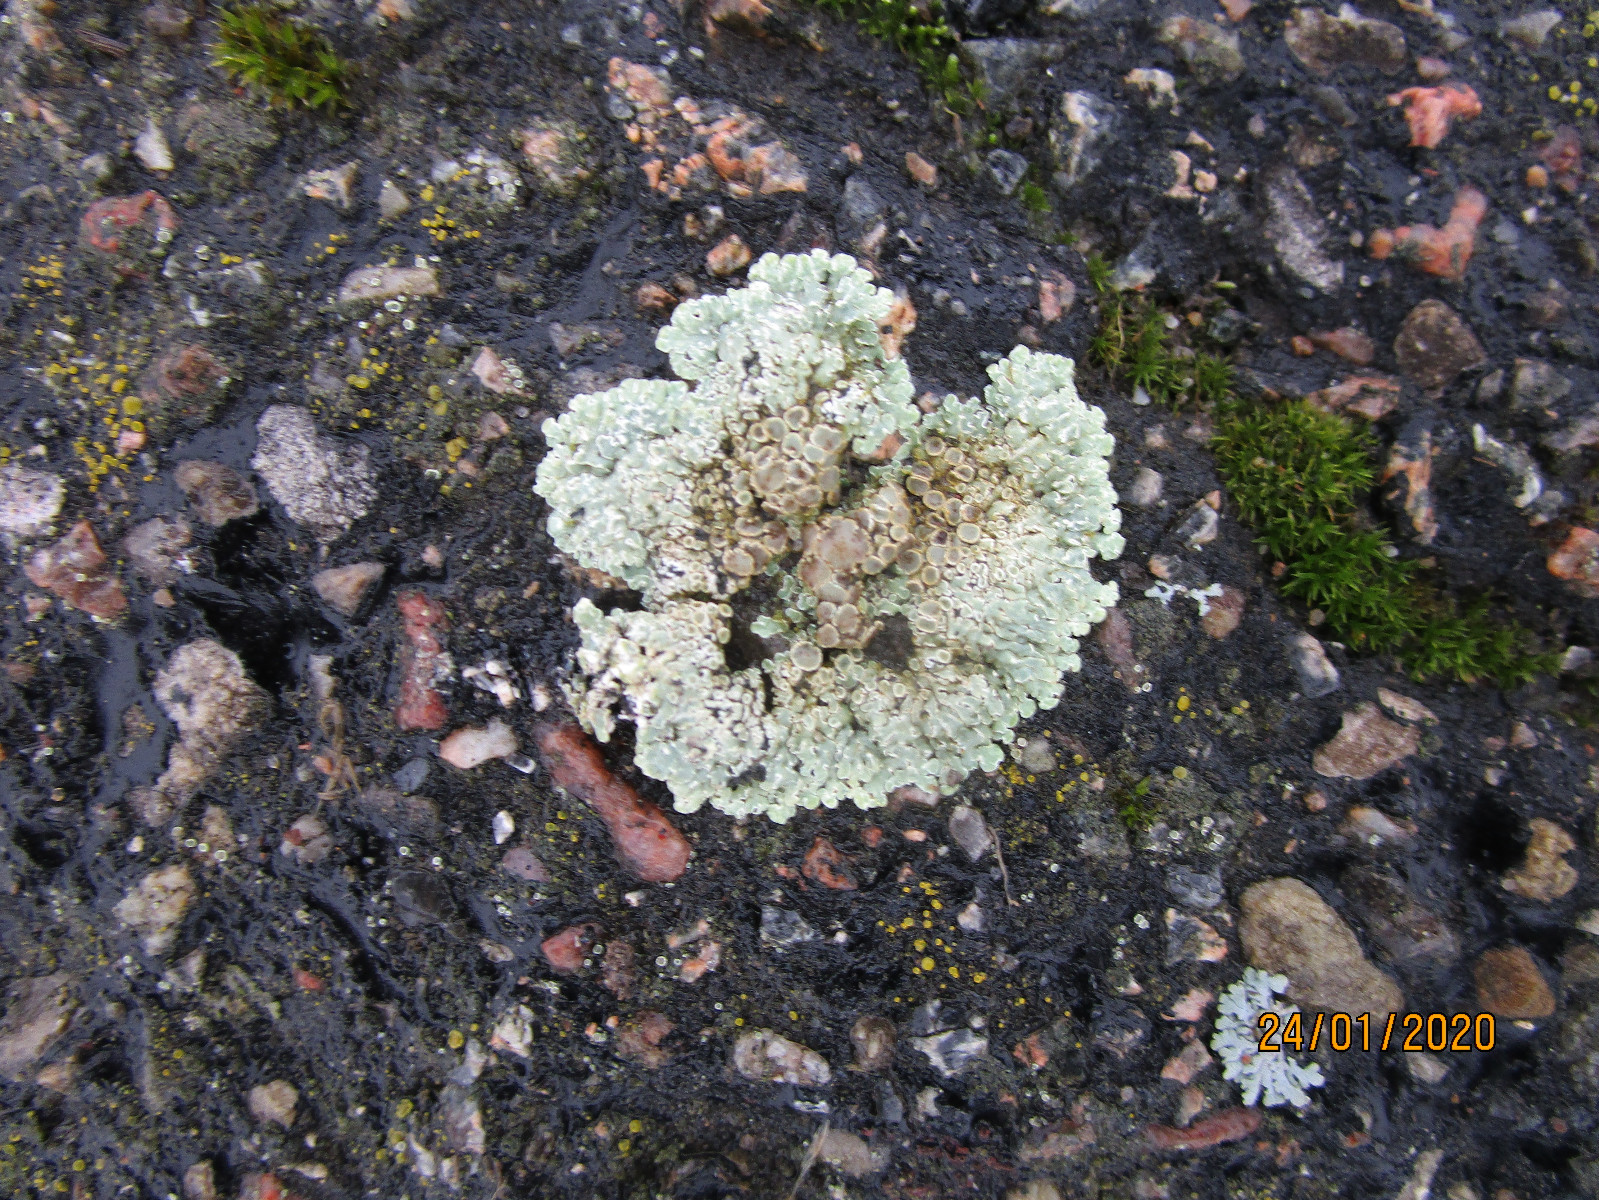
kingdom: Fungi
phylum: Ascomycota
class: Lecanoromycetes
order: Lecanorales
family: Lecanoraceae
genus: Protoparmeliopsis
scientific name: Protoparmeliopsis muralis
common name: randfliget kantskivelav
